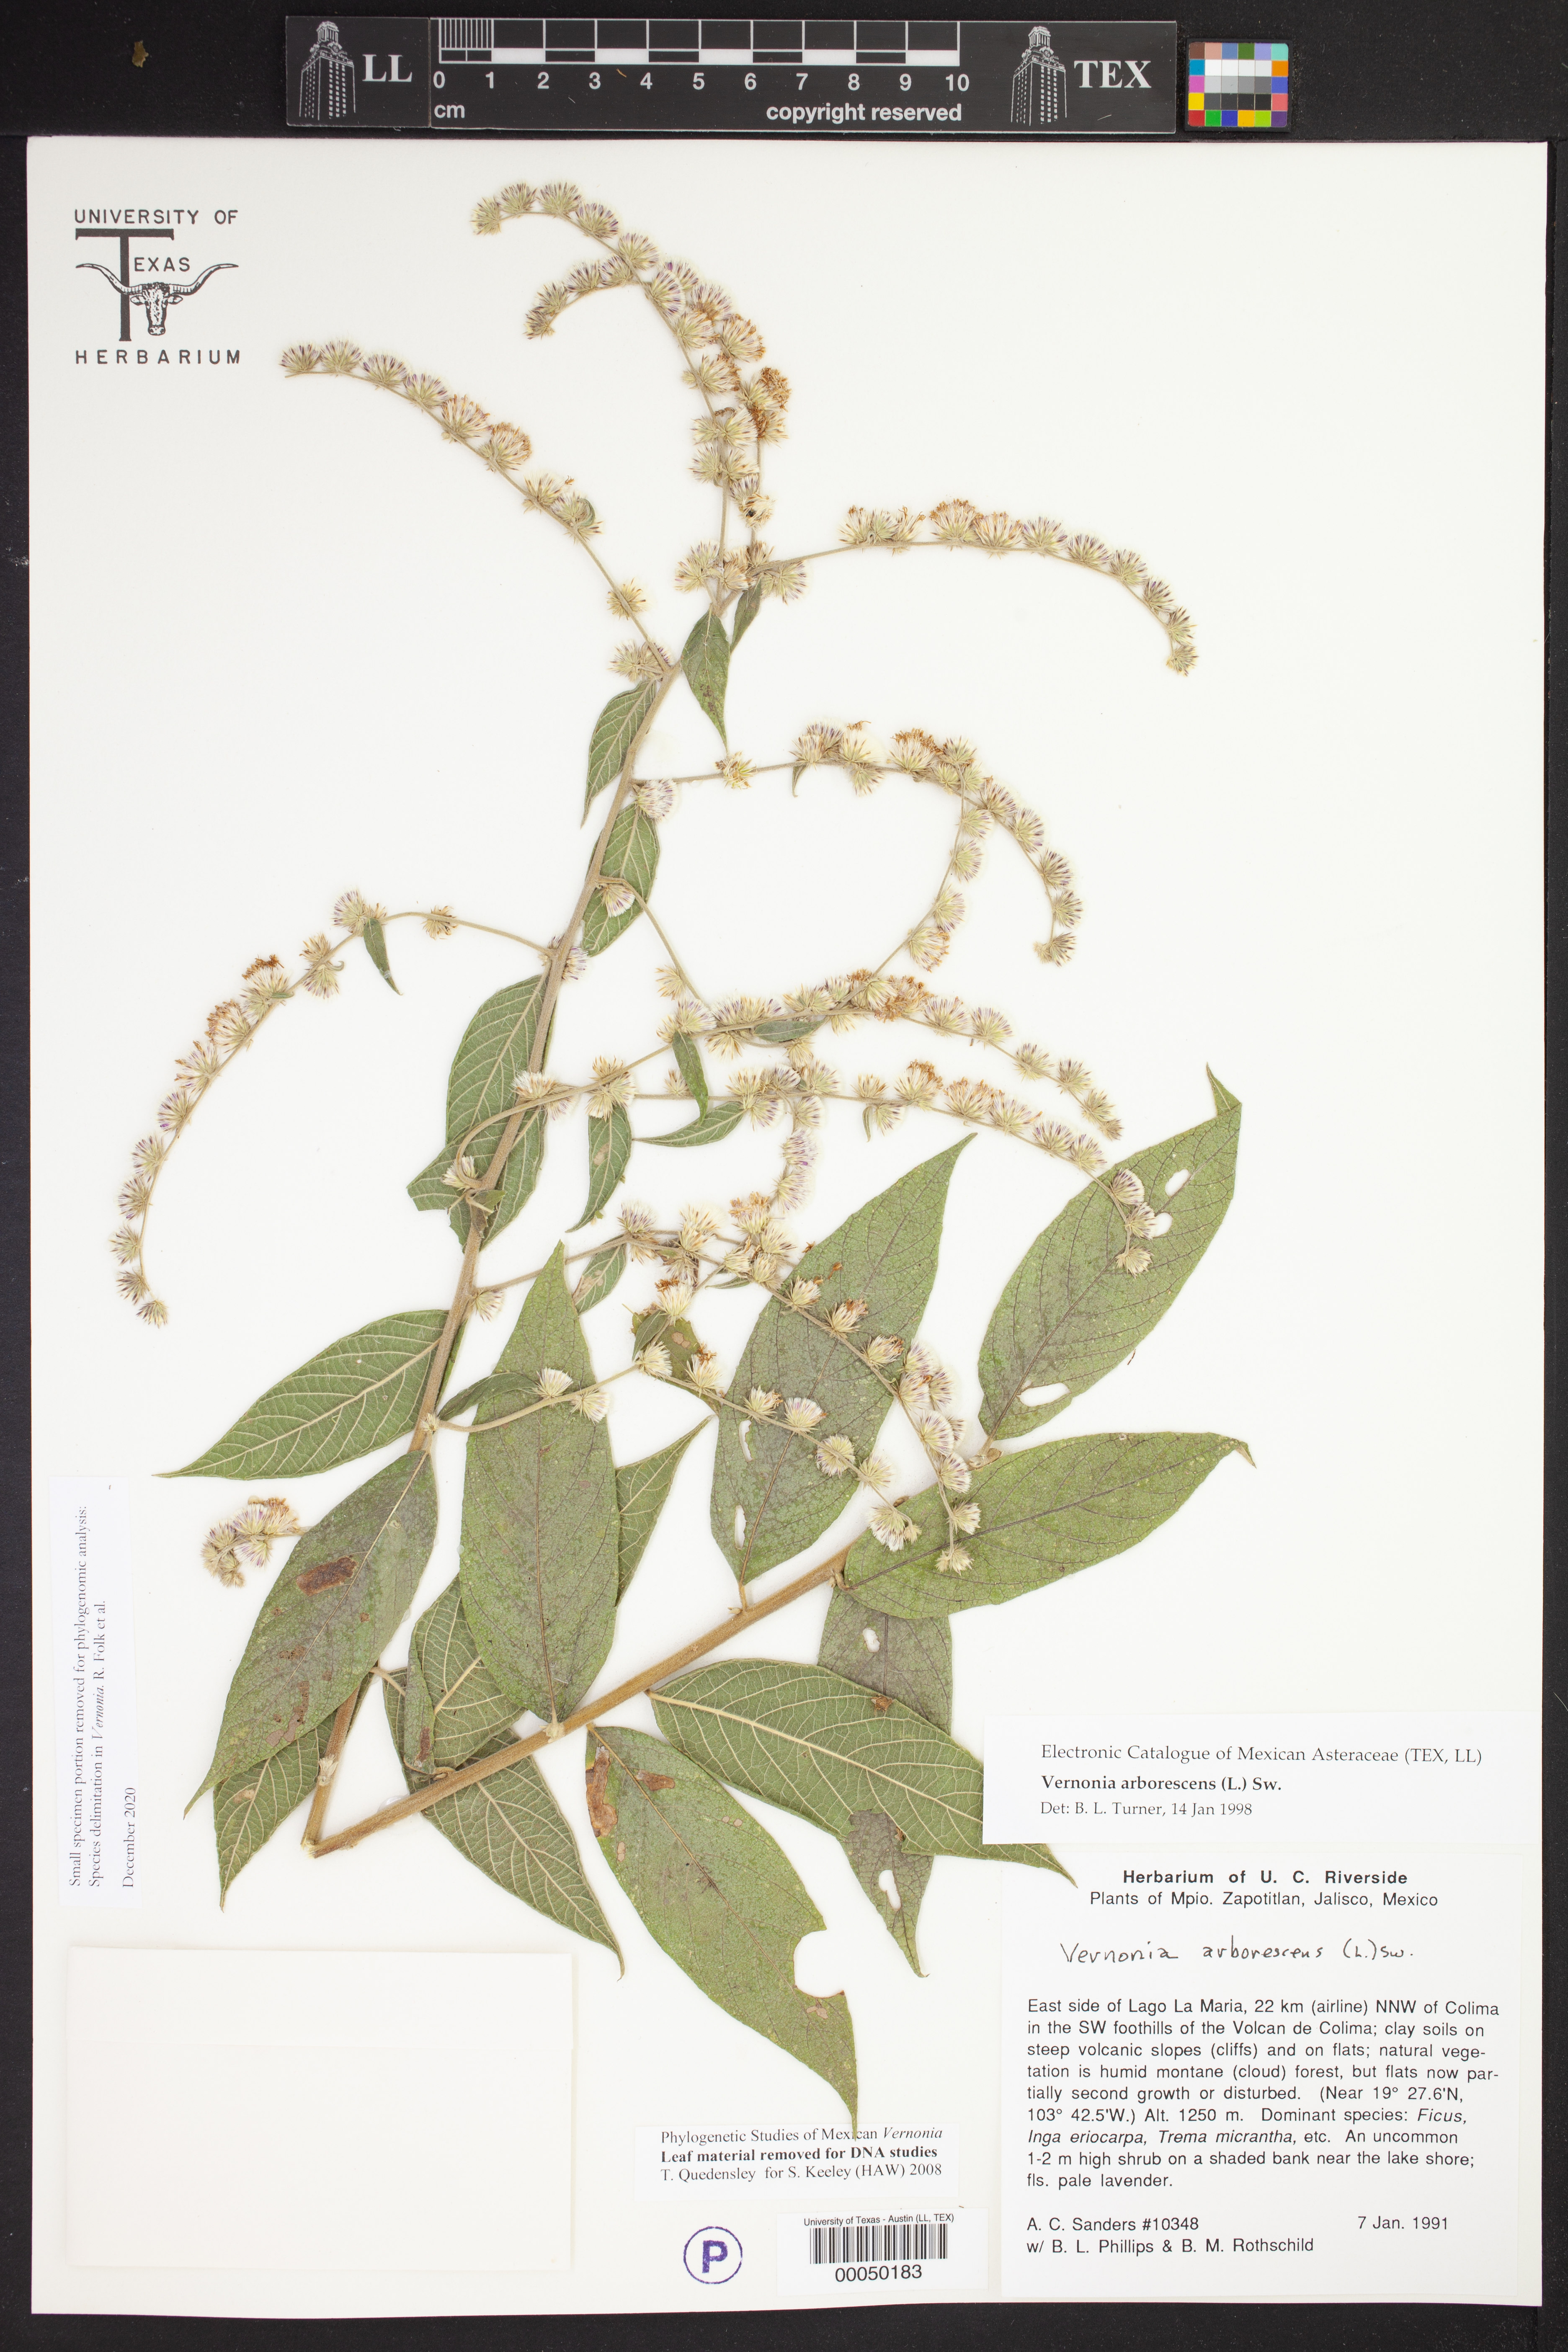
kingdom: Plantae
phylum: Tracheophyta
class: Magnoliopsida
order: Asterales
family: Asteraceae
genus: Lepidaploa
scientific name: Lepidaploa
